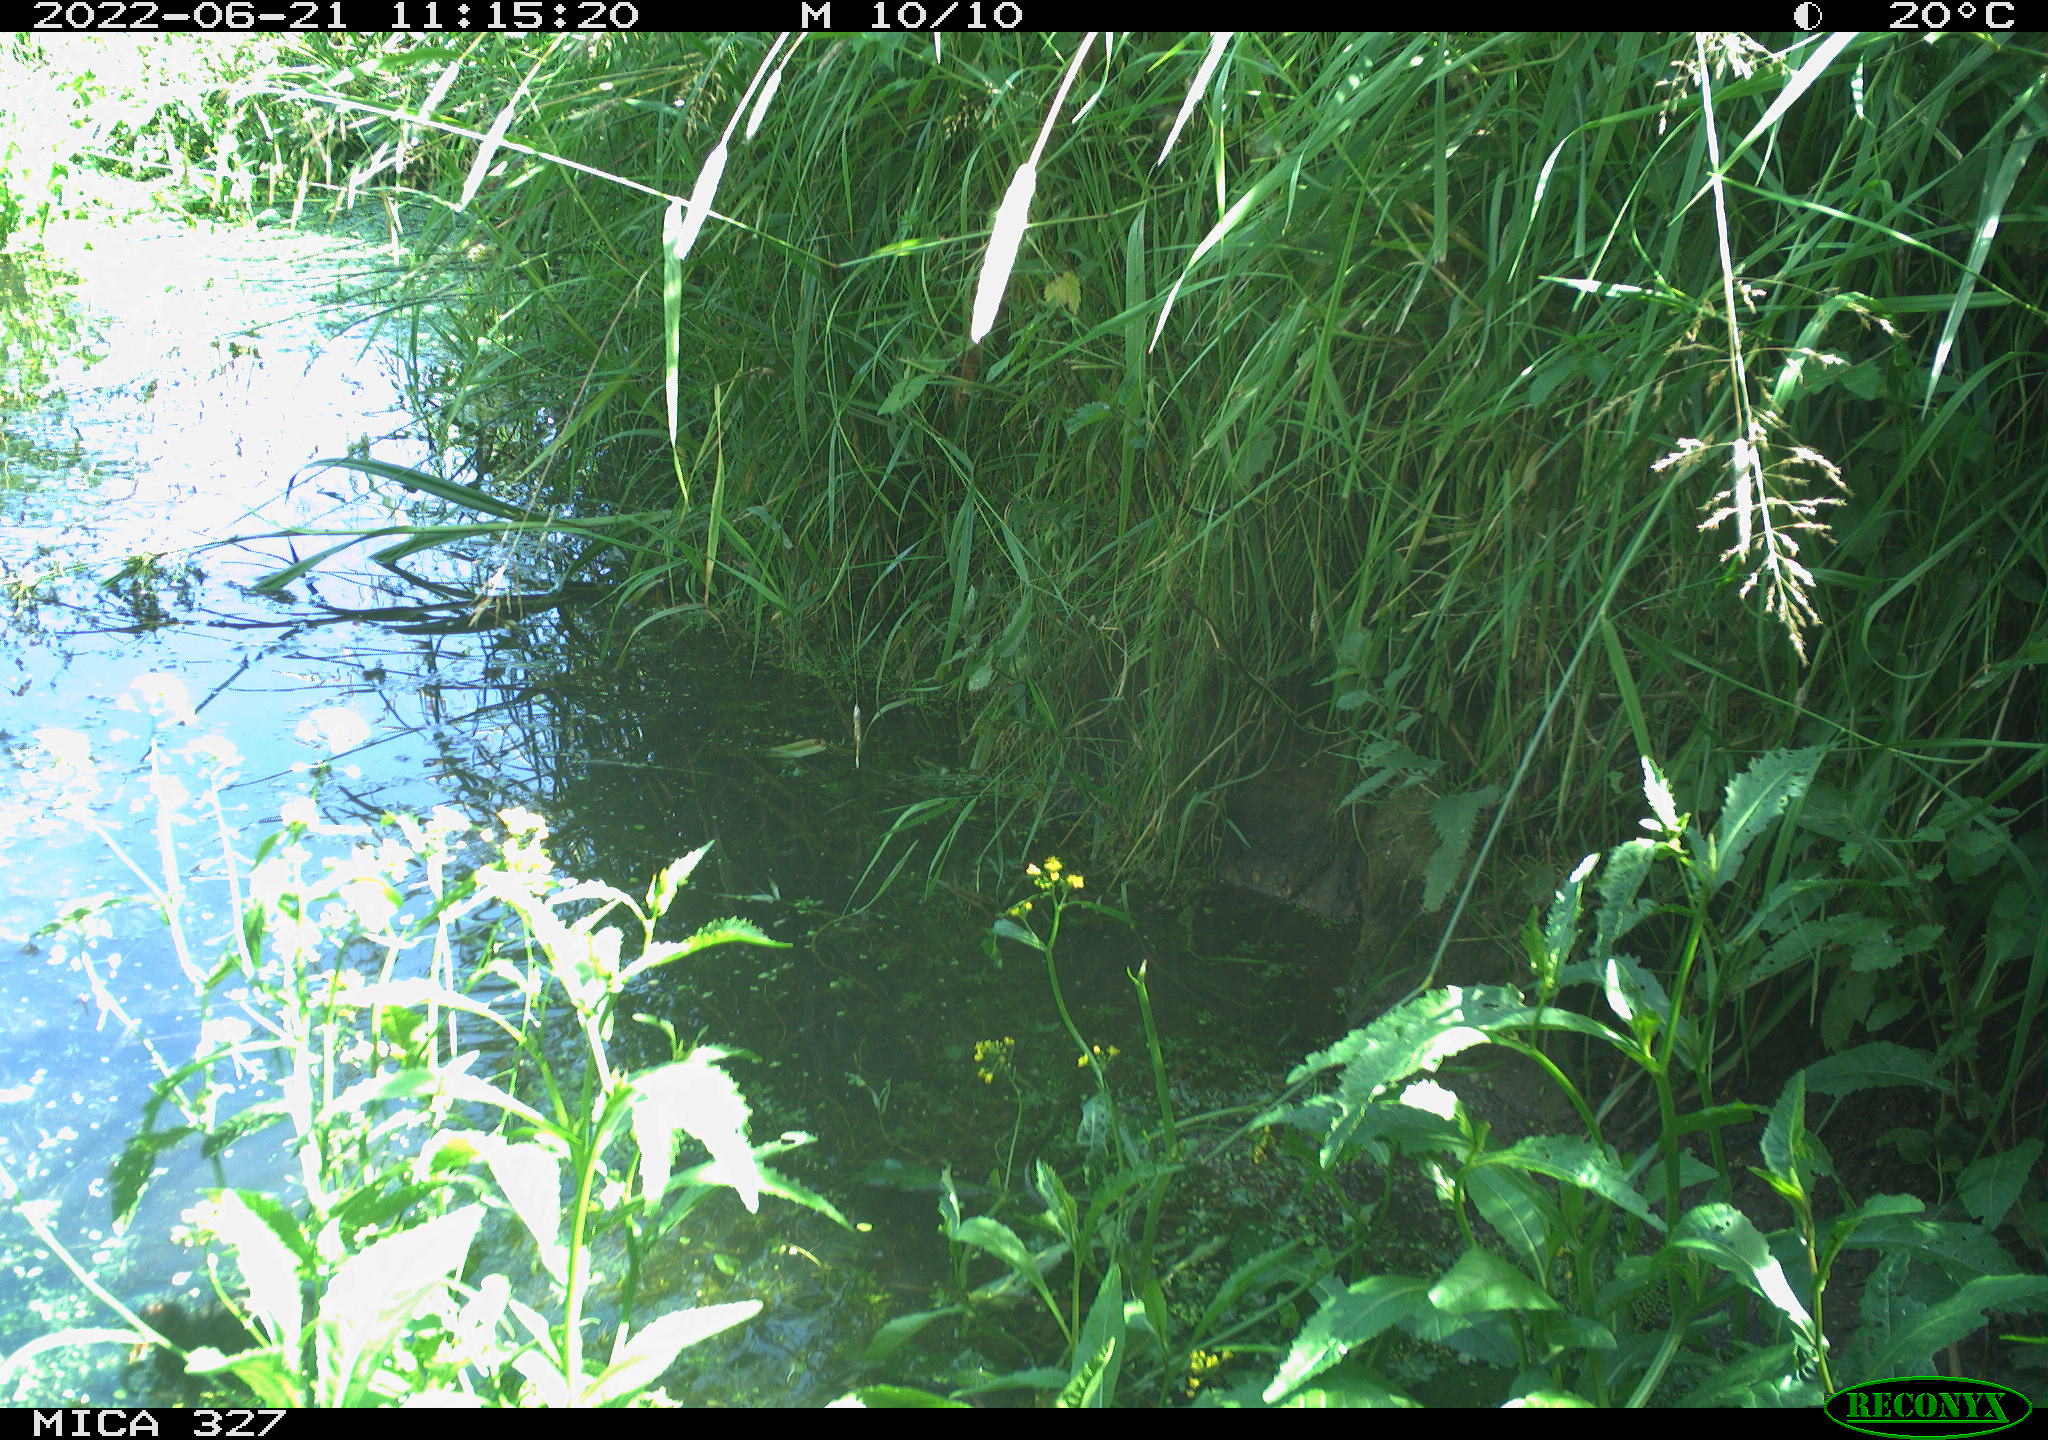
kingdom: Animalia
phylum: Chordata
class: Aves
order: Gruiformes
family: Rallidae
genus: Gallinula
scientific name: Gallinula chloropus
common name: Common moorhen
